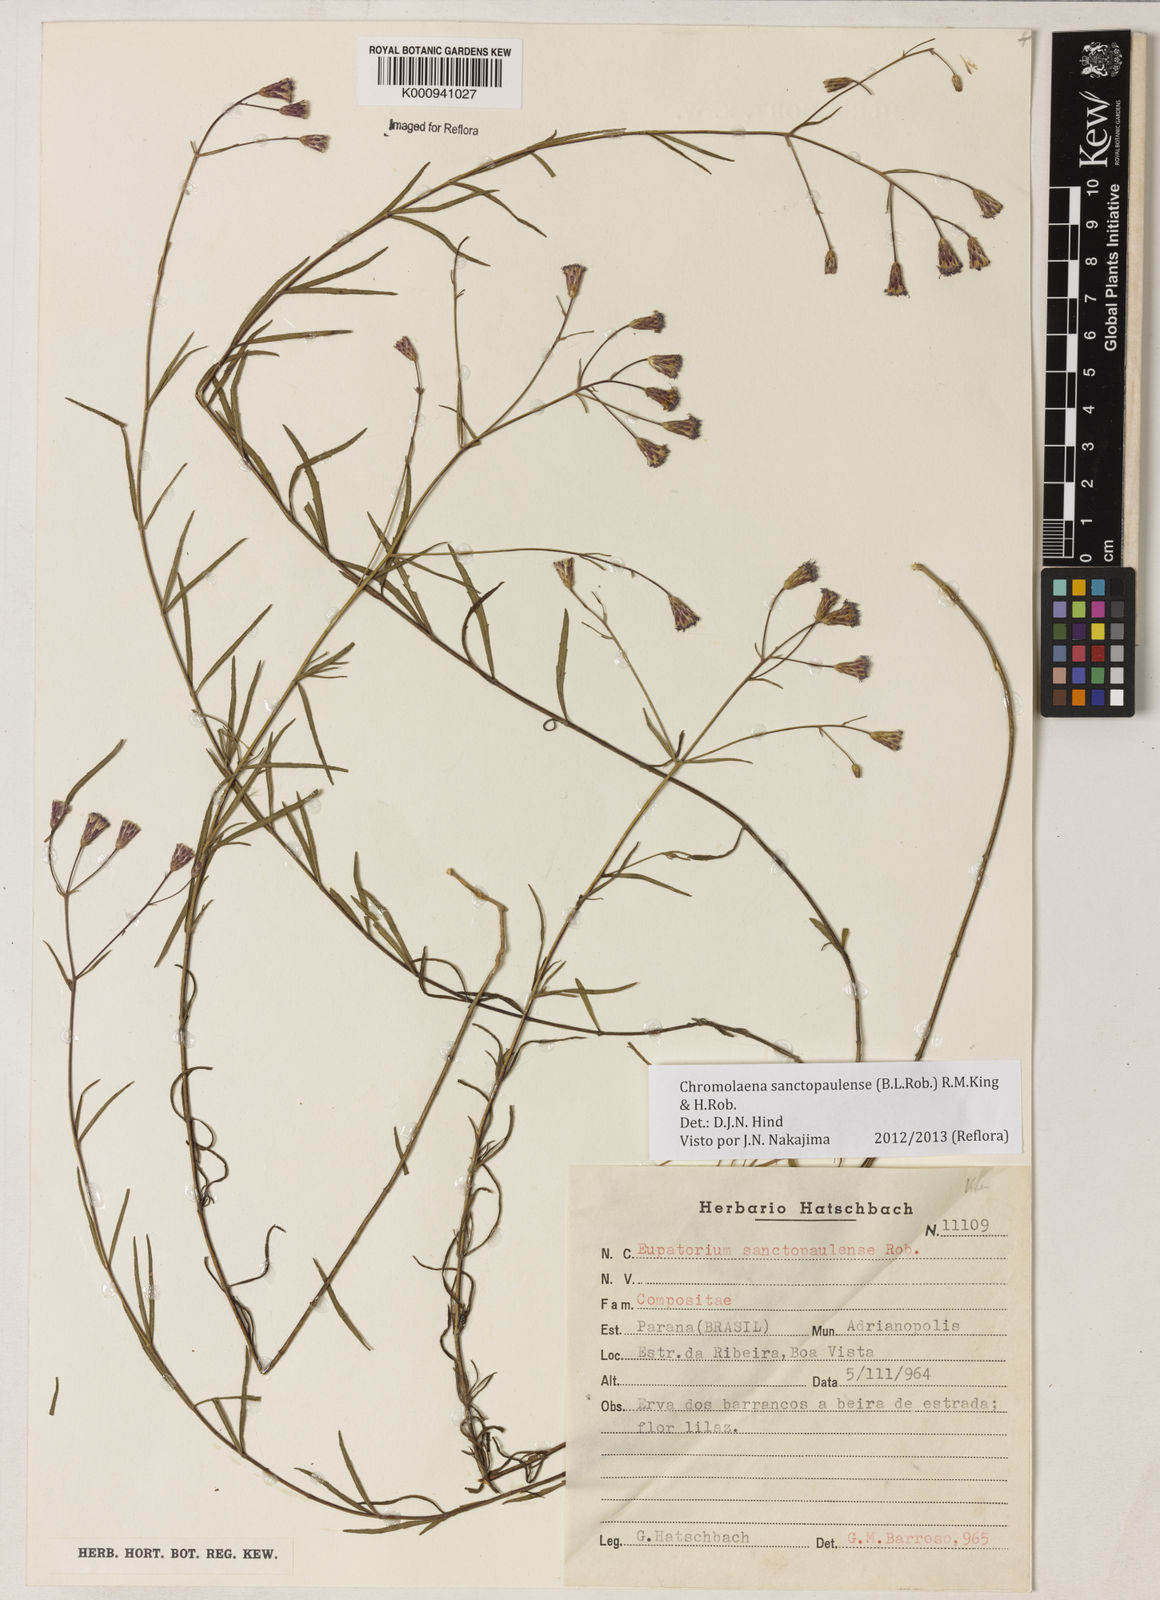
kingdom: Plantae
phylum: Tracheophyta
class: Magnoliopsida
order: Asterales
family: Asteraceae
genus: Chromolaena
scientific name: Chromolaena
